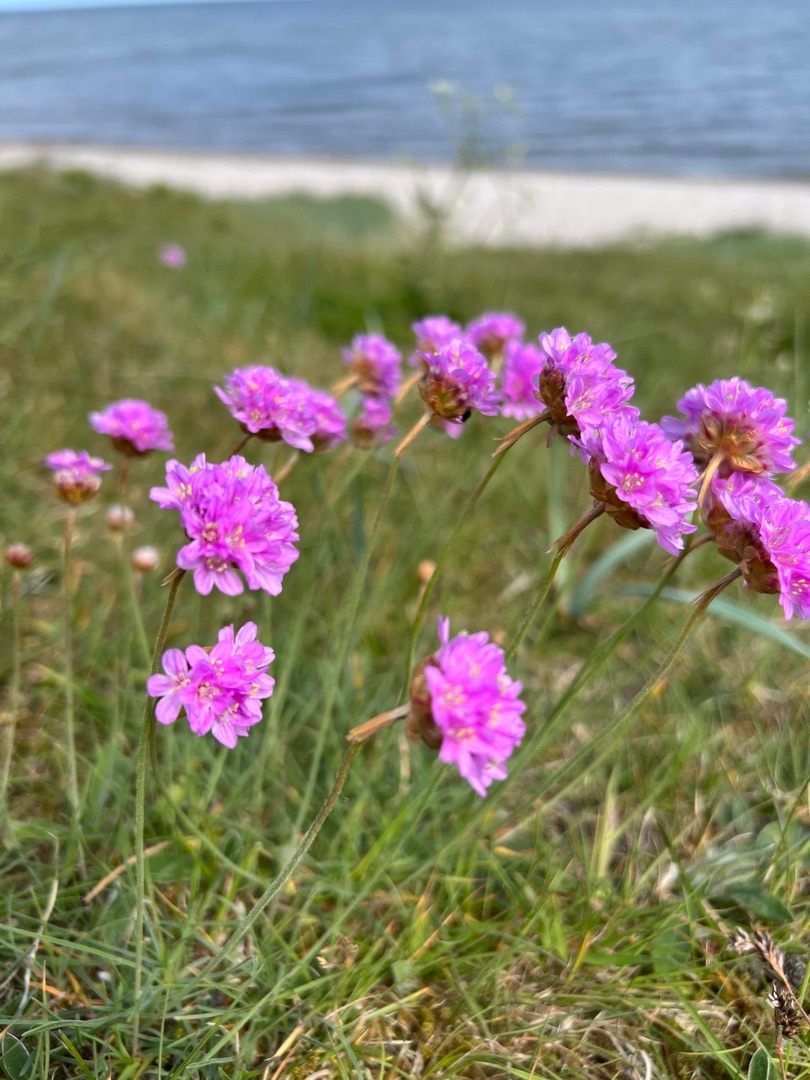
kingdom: Plantae
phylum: Tracheophyta
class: Magnoliopsida
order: Caryophyllales
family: Plumbaginaceae
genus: Armeria
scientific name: Armeria maritima
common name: Engelskgræs
